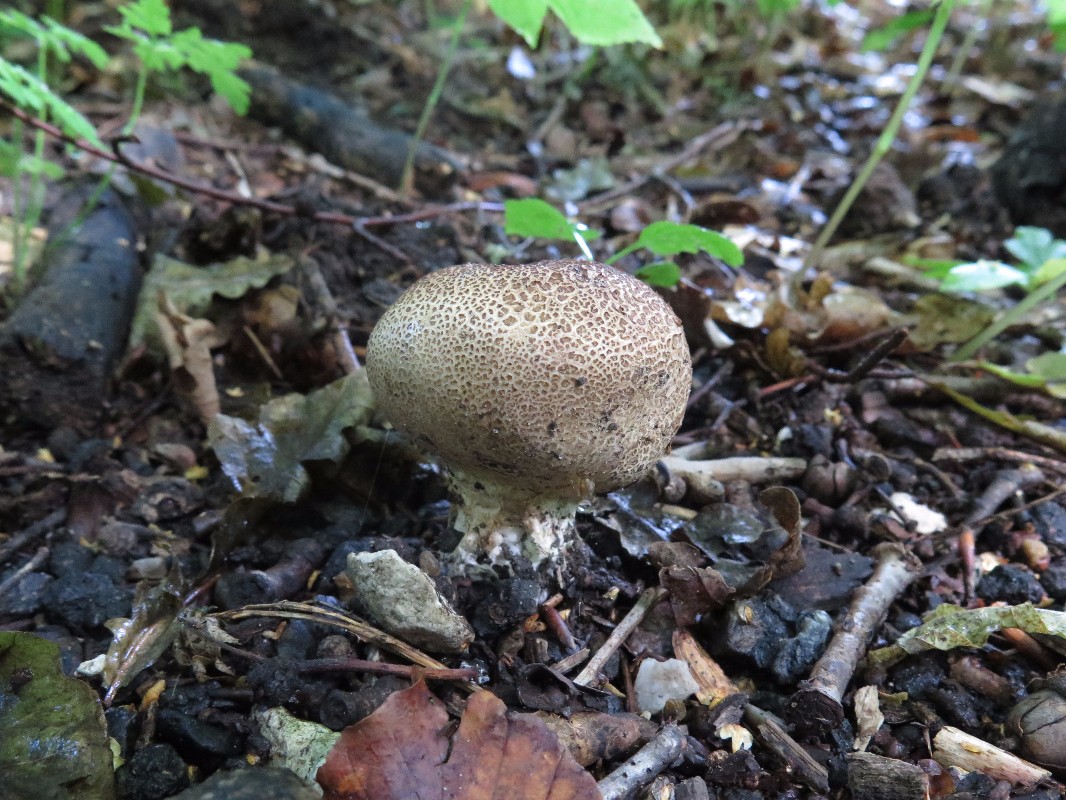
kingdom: Fungi
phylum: Basidiomycota
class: Agaricomycetes
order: Boletales
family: Sclerodermataceae
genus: Scleroderma
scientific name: Scleroderma verrucosum
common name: stilket bruskbold
